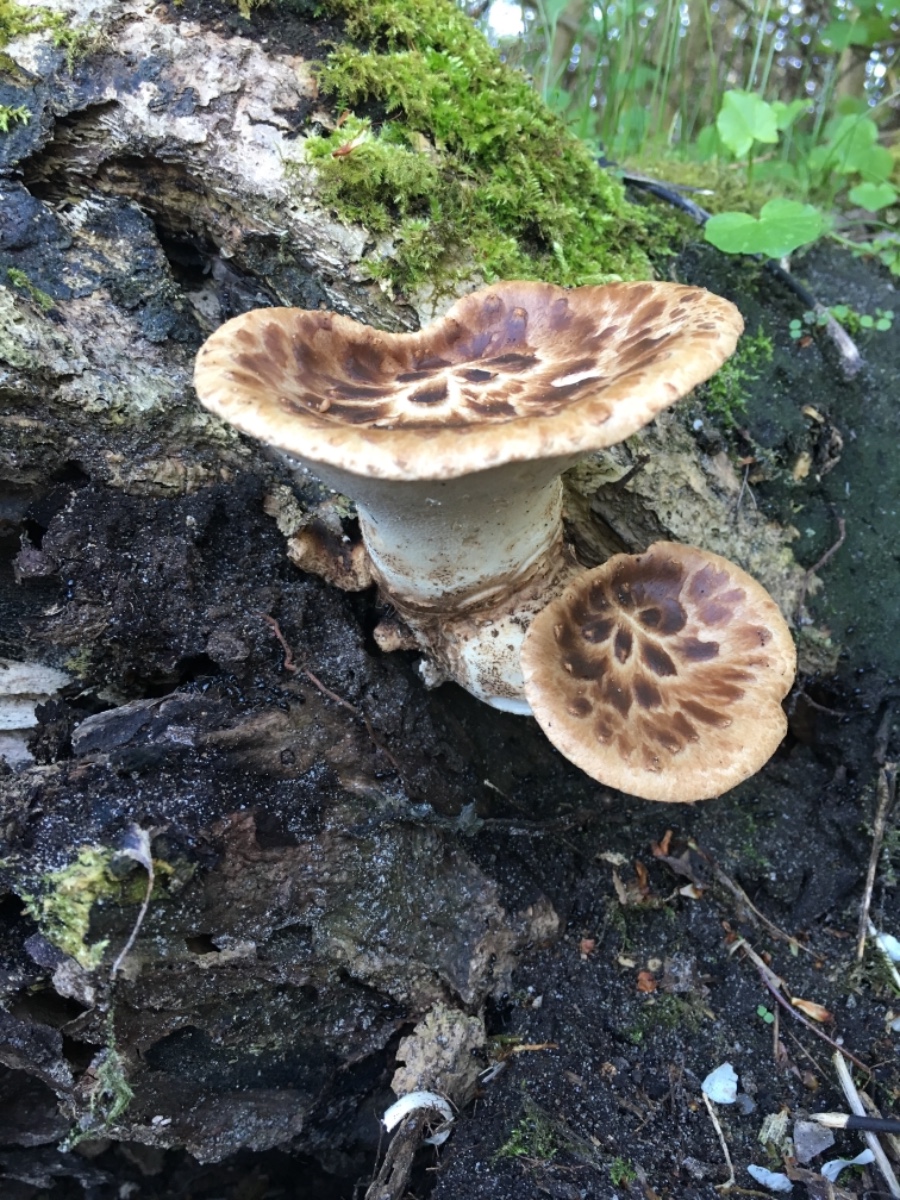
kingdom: Fungi
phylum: Basidiomycota
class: Agaricomycetes
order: Polyporales
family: Polyporaceae
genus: Cerioporus
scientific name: Cerioporus squamosus
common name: skællet stilkporesvamp
